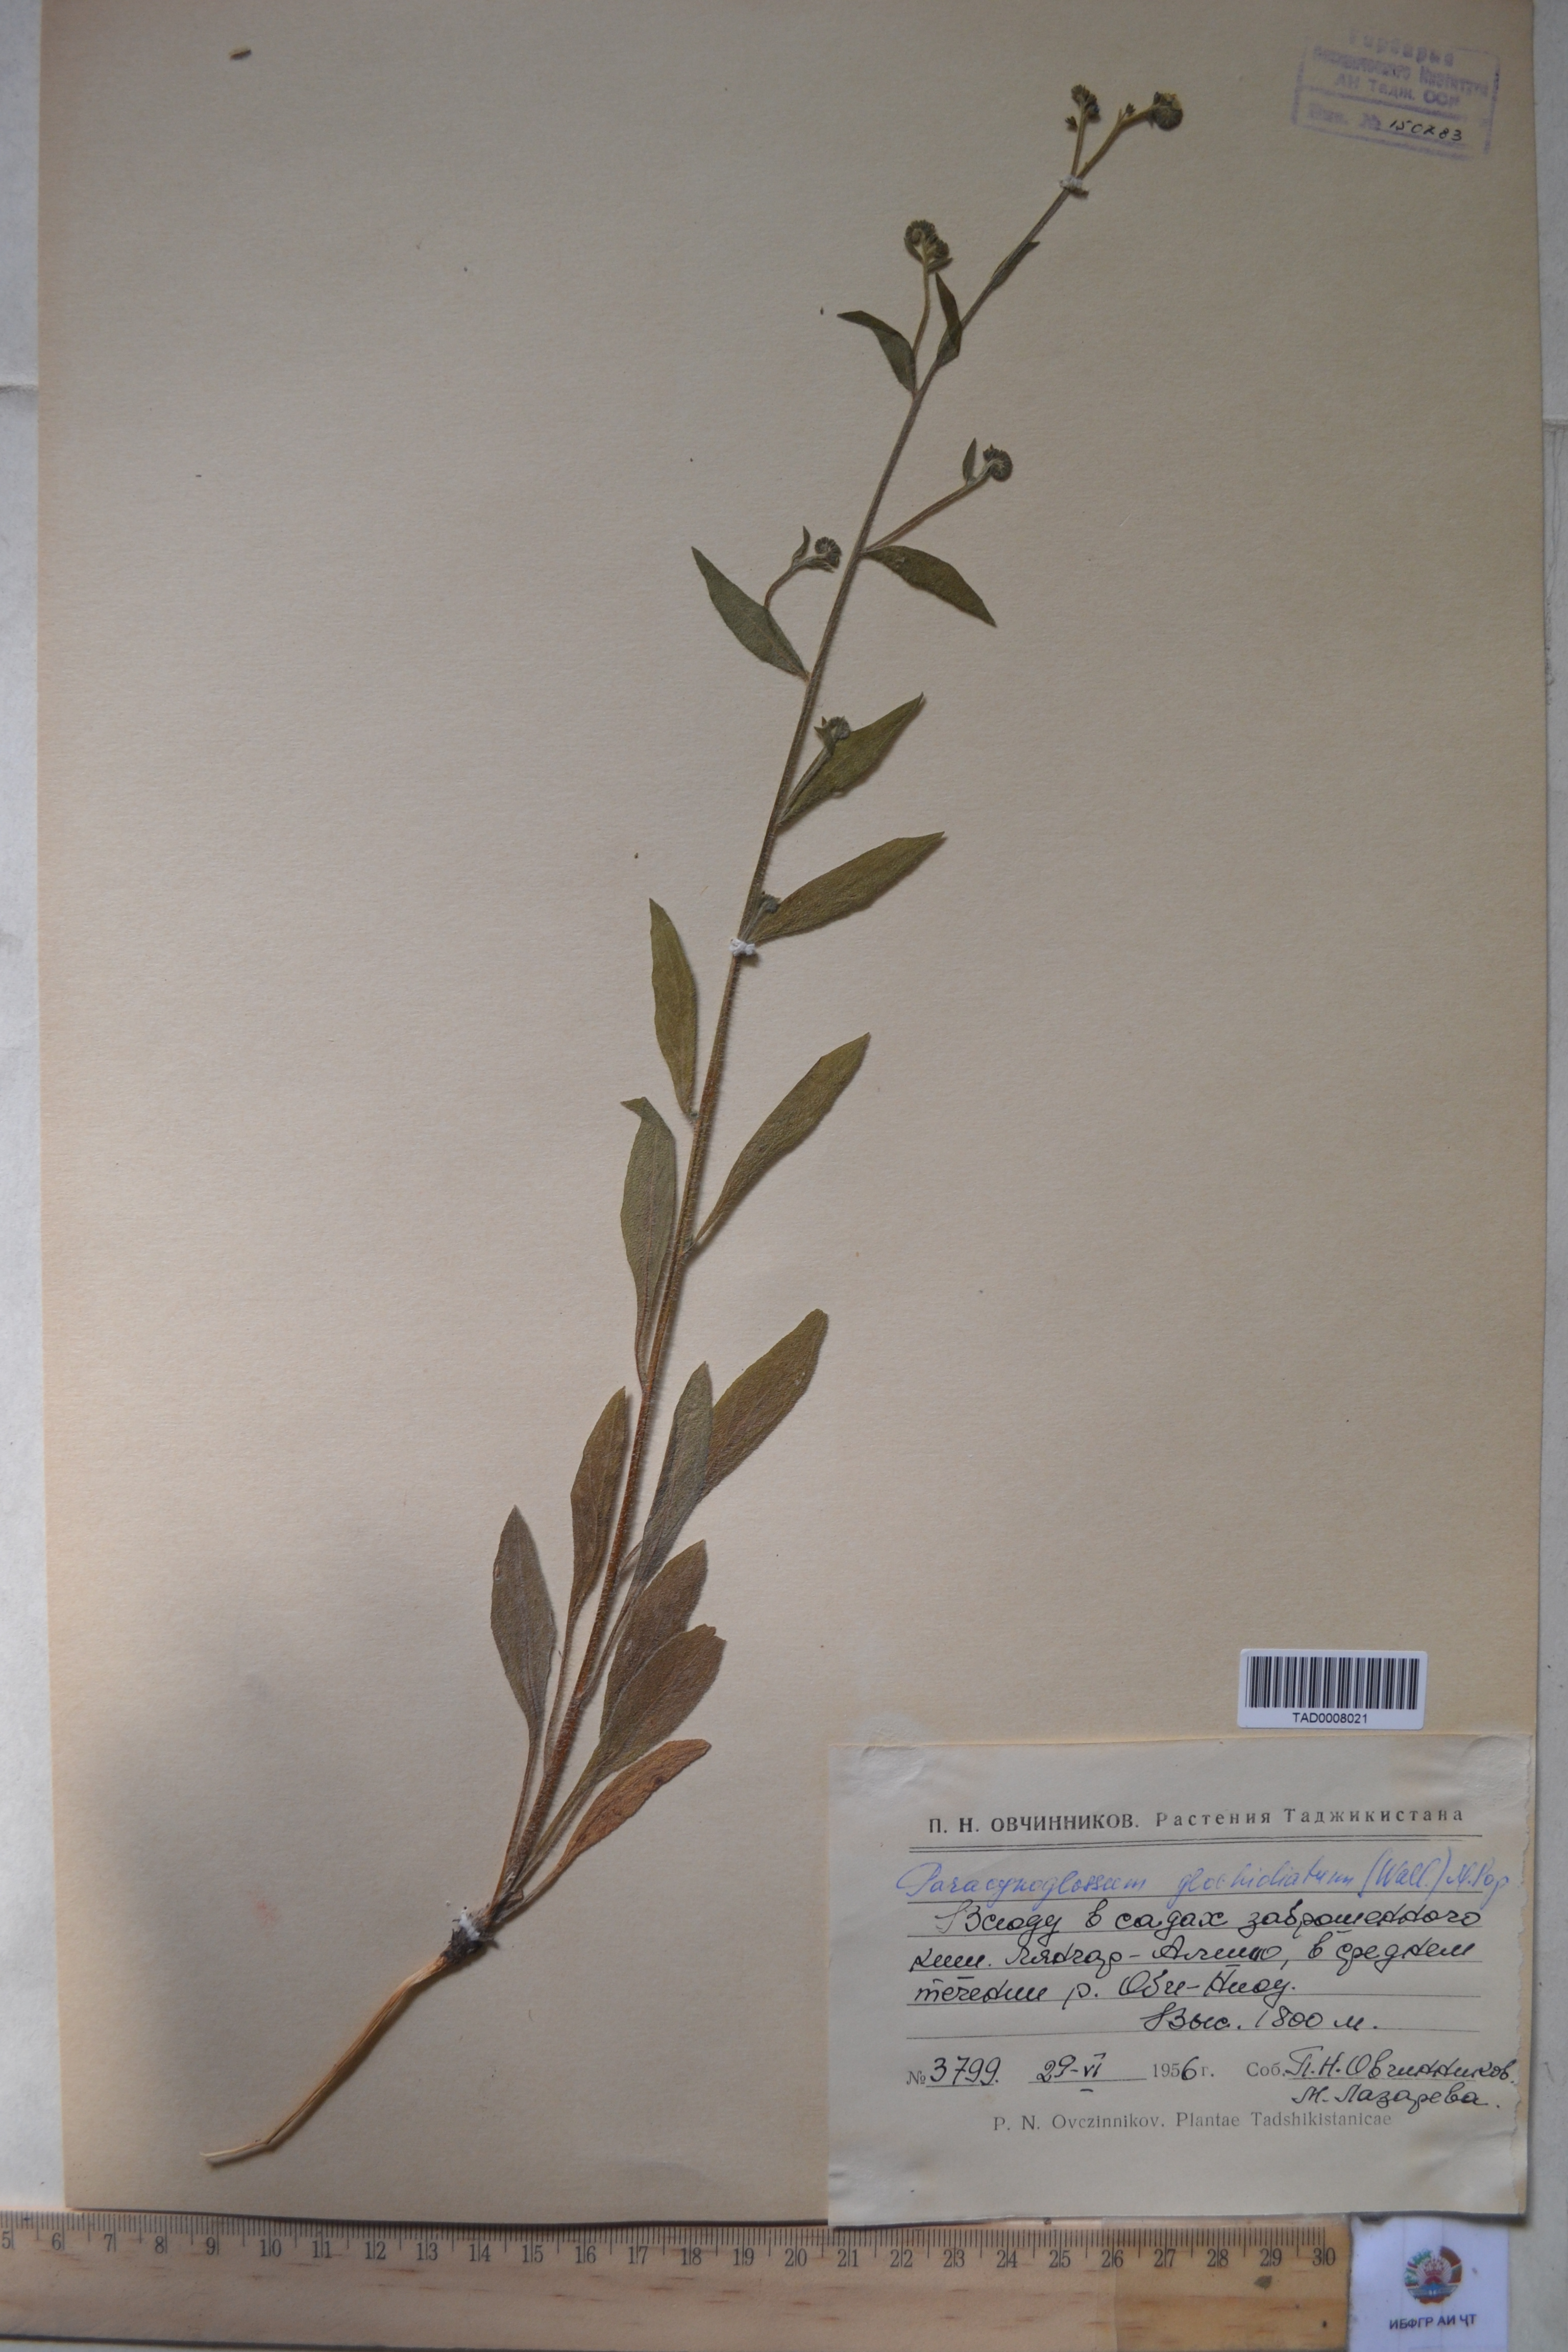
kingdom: Plantae
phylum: Tracheophyta
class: Magnoliopsida
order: Boraginales
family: Boraginaceae
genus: Paracynoglossum
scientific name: Paracynoglossum glochidiatum
